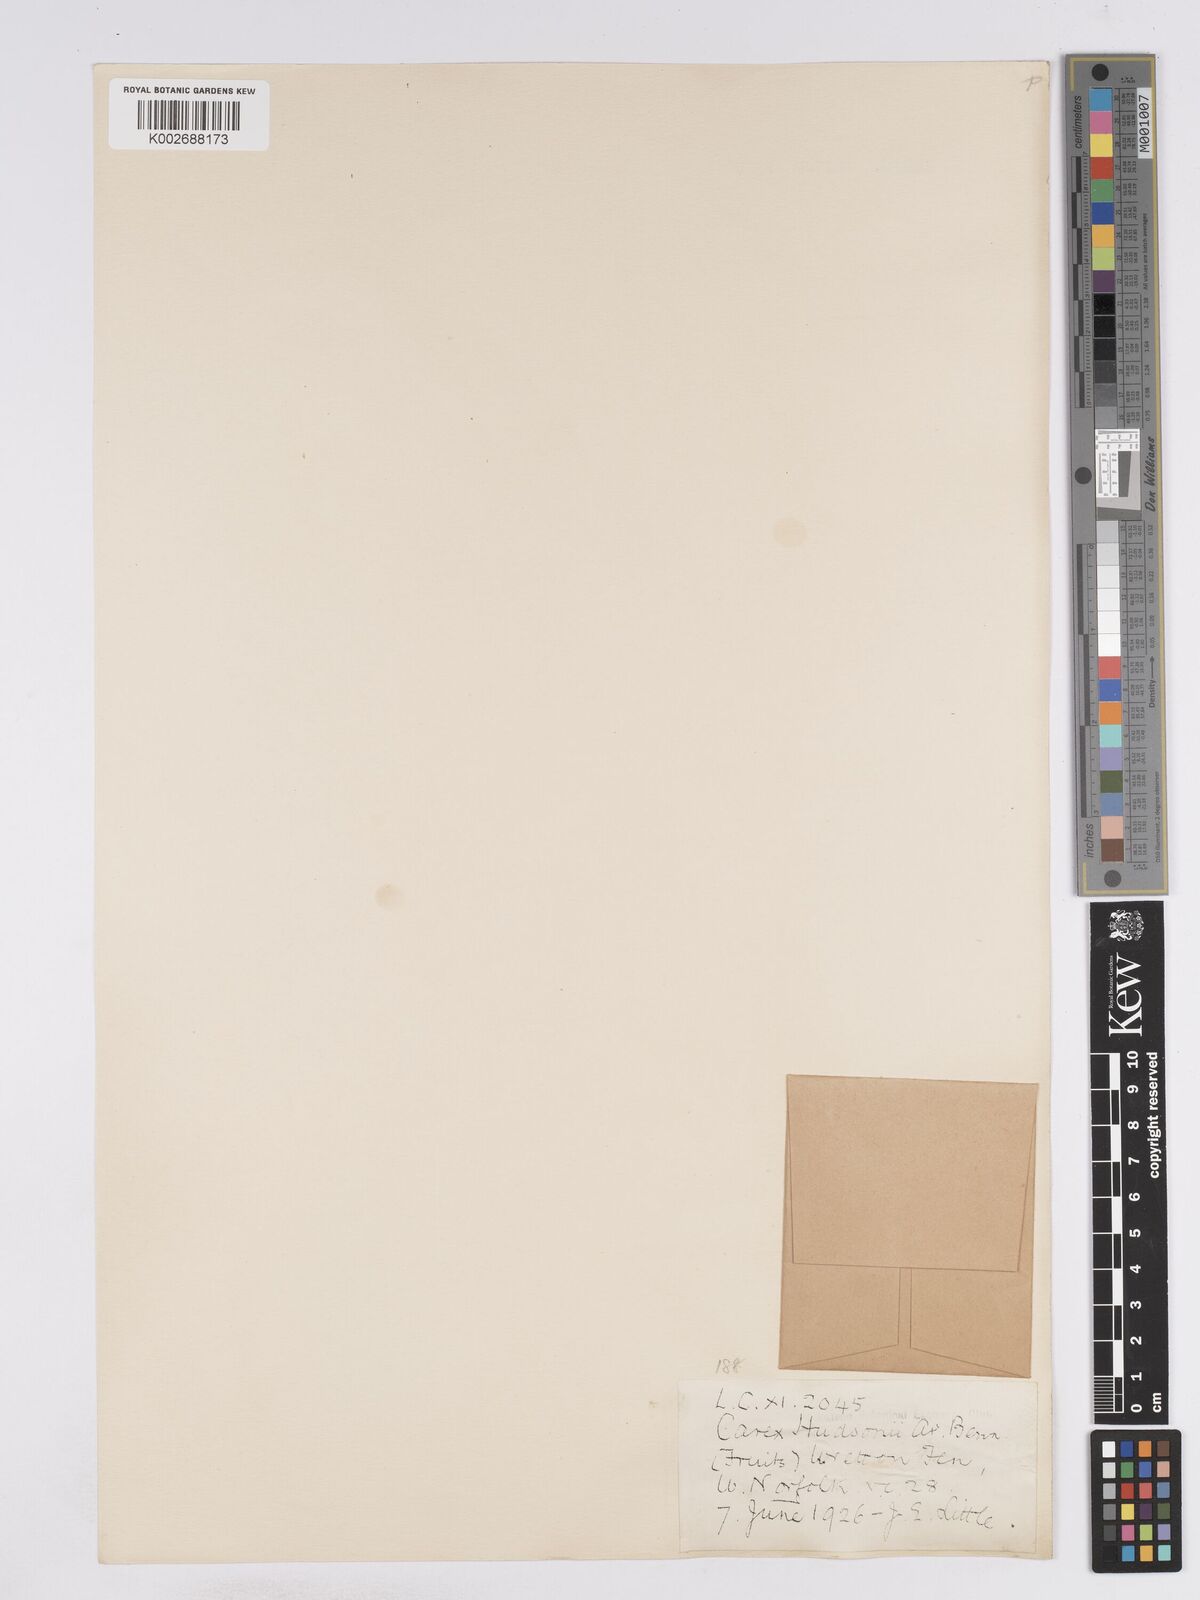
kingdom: Plantae
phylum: Tracheophyta
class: Liliopsida
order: Poales
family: Cyperaceae
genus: Carex
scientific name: Carex elata
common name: Tufted sedge
